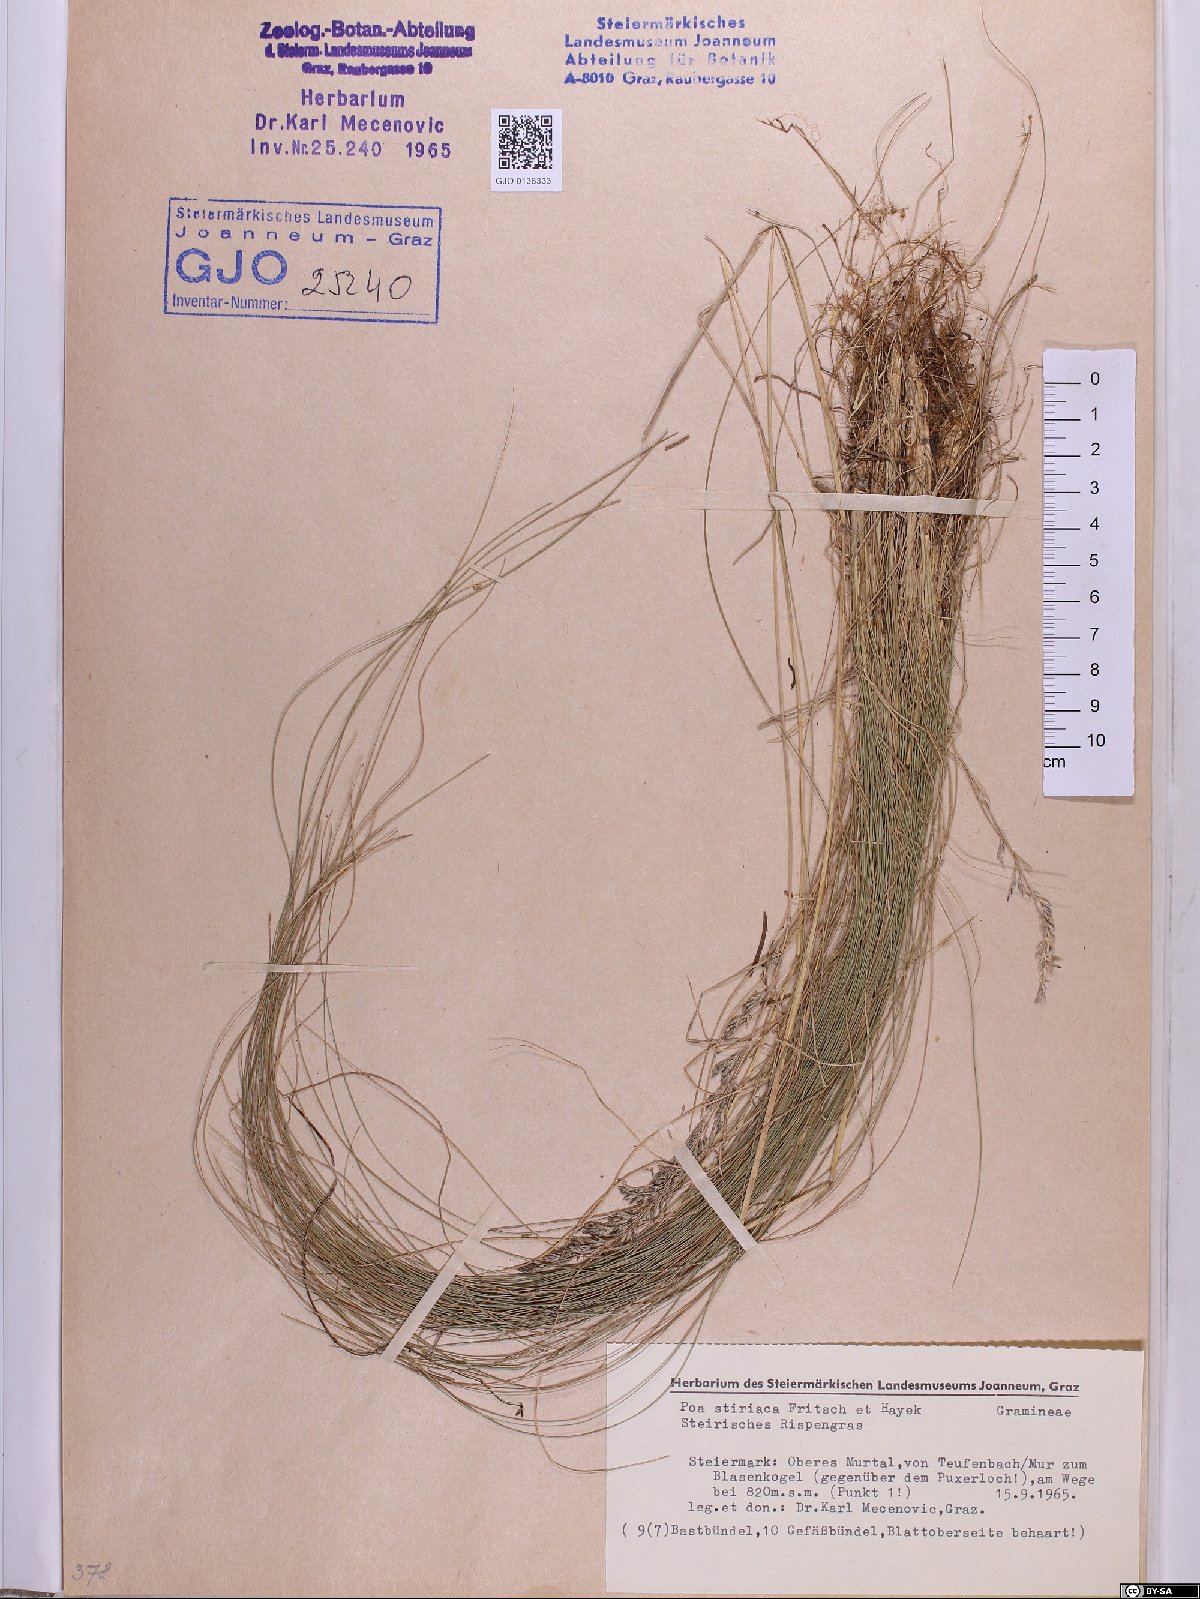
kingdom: Plantae
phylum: Tracheophyta
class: Liliopsida
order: Poales
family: Poaceae
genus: Poa
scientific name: Poa stiriaca
